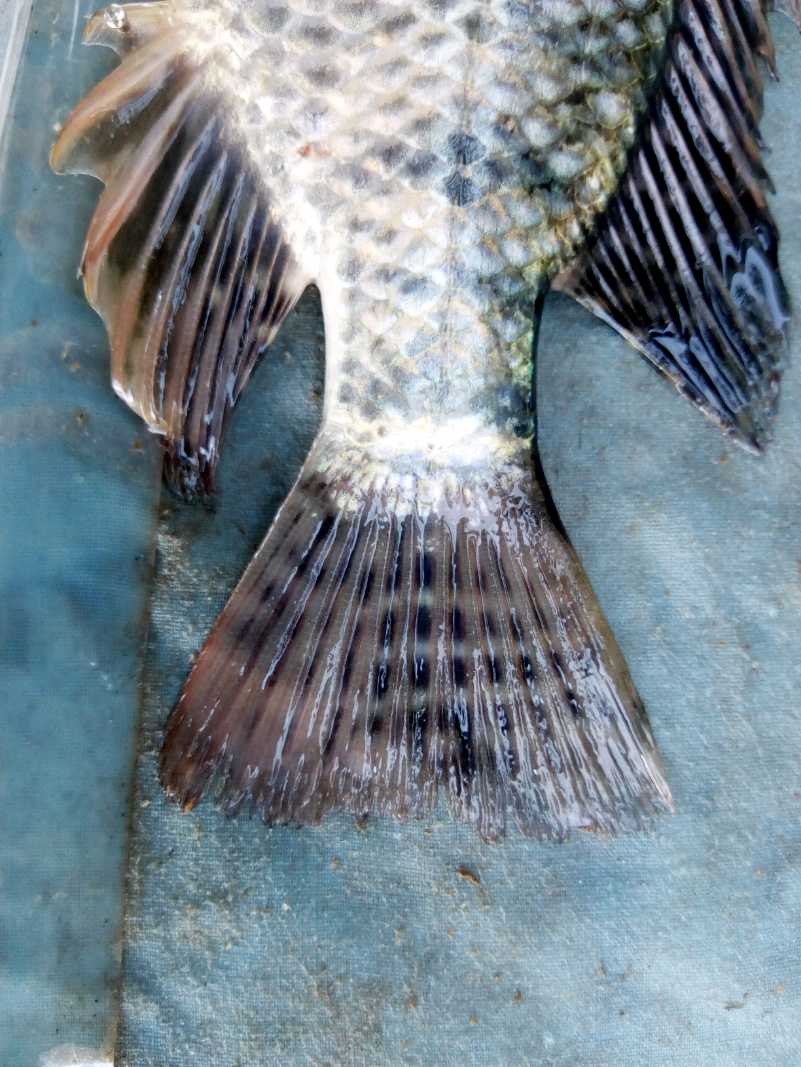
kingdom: Animalia
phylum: Chordata
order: Perciformes
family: Cichlidae
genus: Oreochromis
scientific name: Oreochromis niloticus
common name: Nile tilapia
